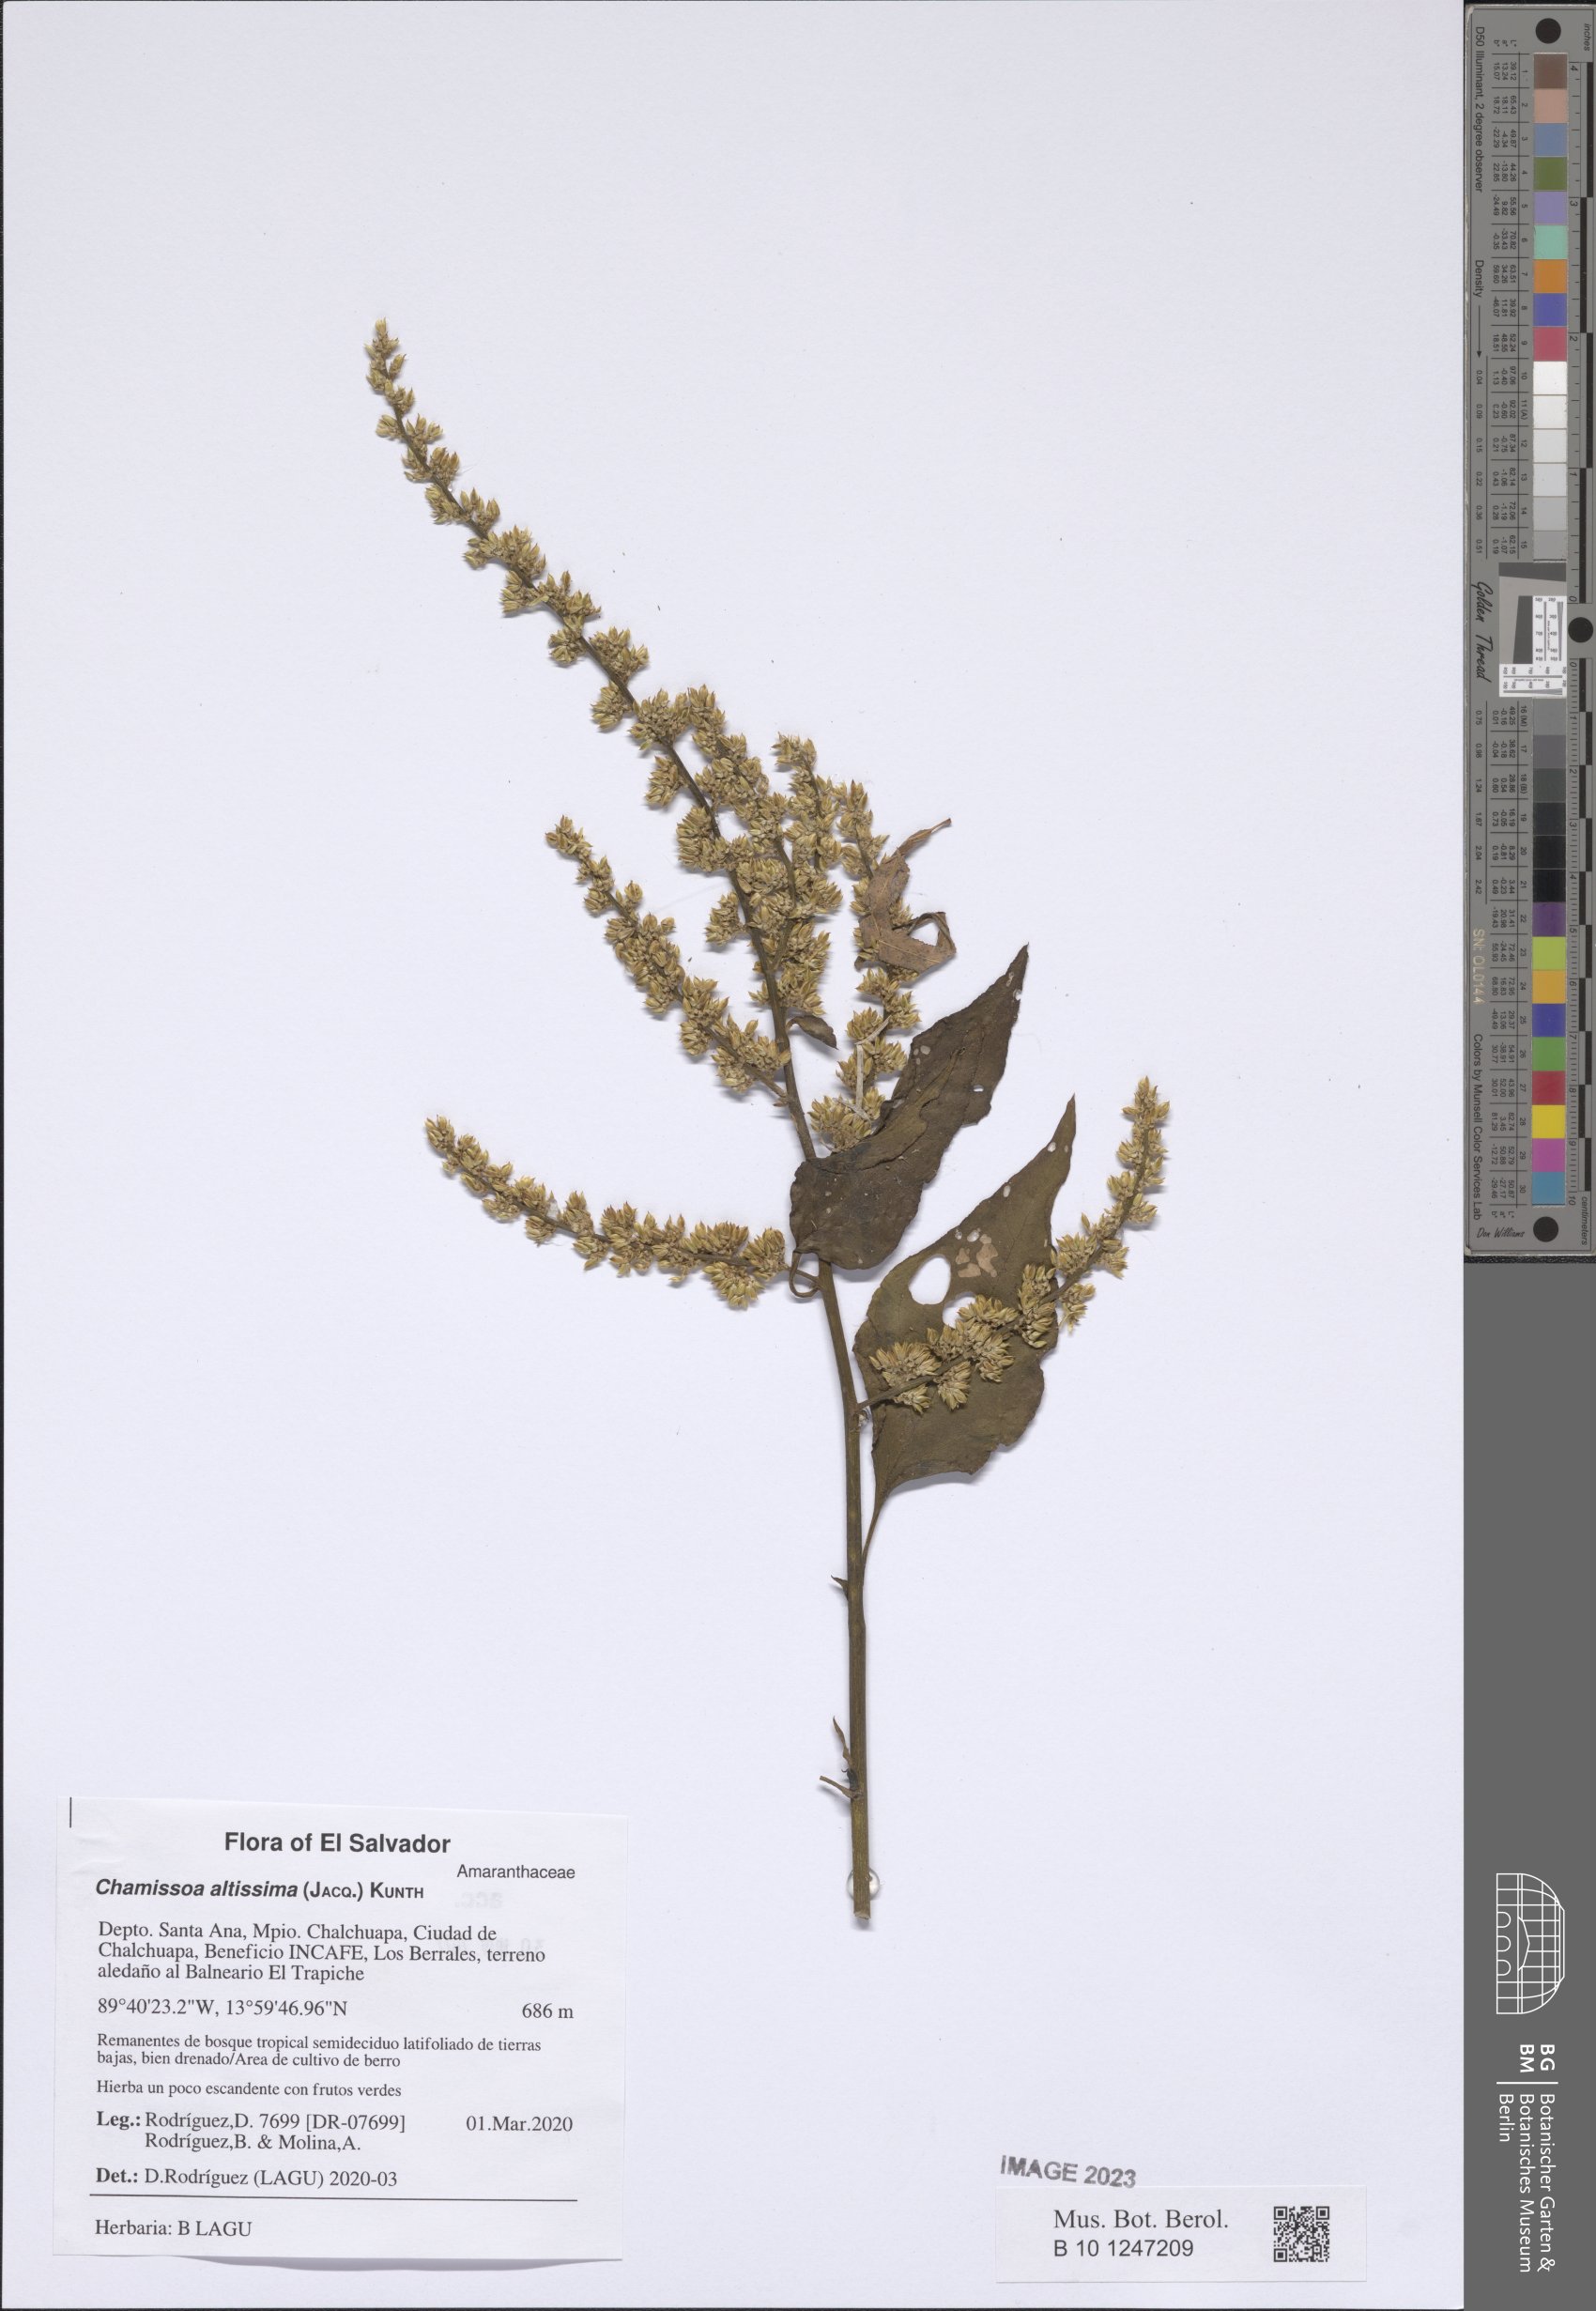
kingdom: Plantae
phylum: Tracheophyta
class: Magnoliopsida
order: Caryophyllales
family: Amaranthaceae
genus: Chamissoa
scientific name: Chamissoa altissima
